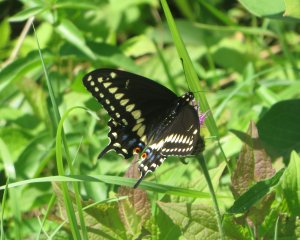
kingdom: Animalia
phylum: Arthropoda
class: Insecta
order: Lepidoptera
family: Papilionidae
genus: Papilio
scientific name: Papilio polyxenes
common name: Black Swallowtail
